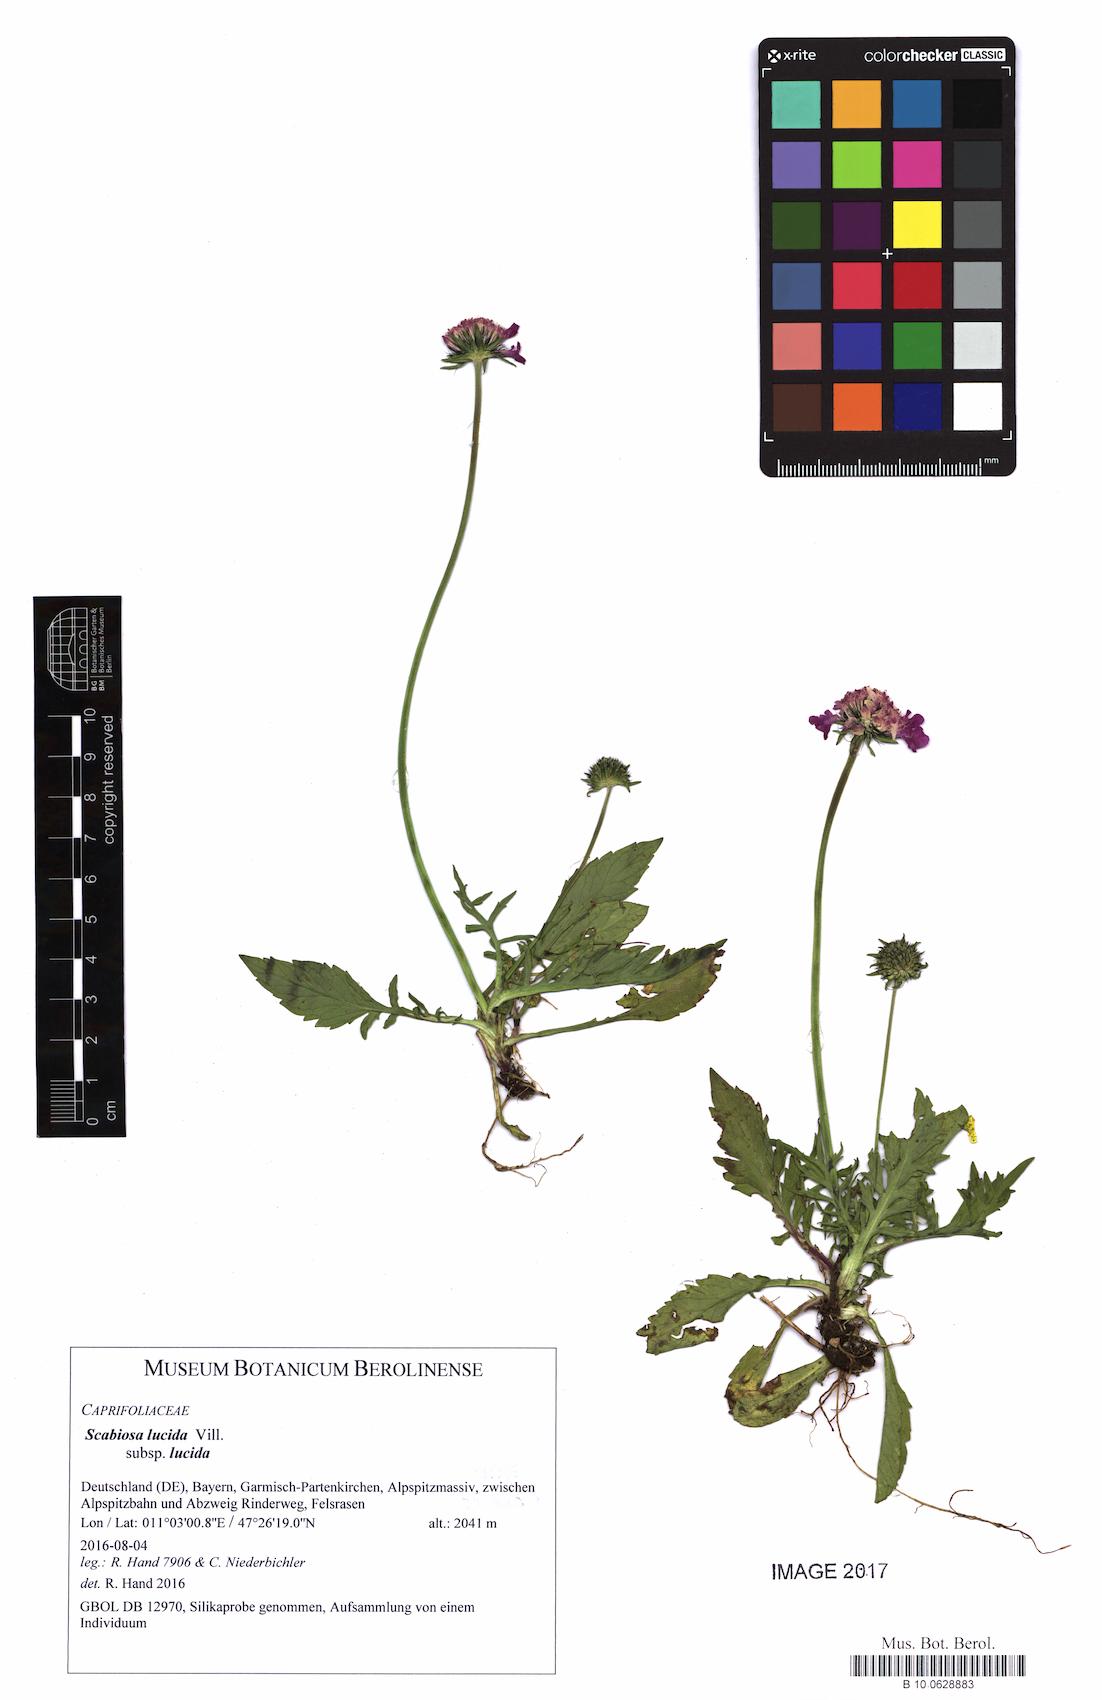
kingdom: Plantae
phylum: Tracheophyta
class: Magnoliopsida
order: Dipsacales
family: Caprifoliaceae
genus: Scabiosa
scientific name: Scabiosa lucida
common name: Shining scabious
